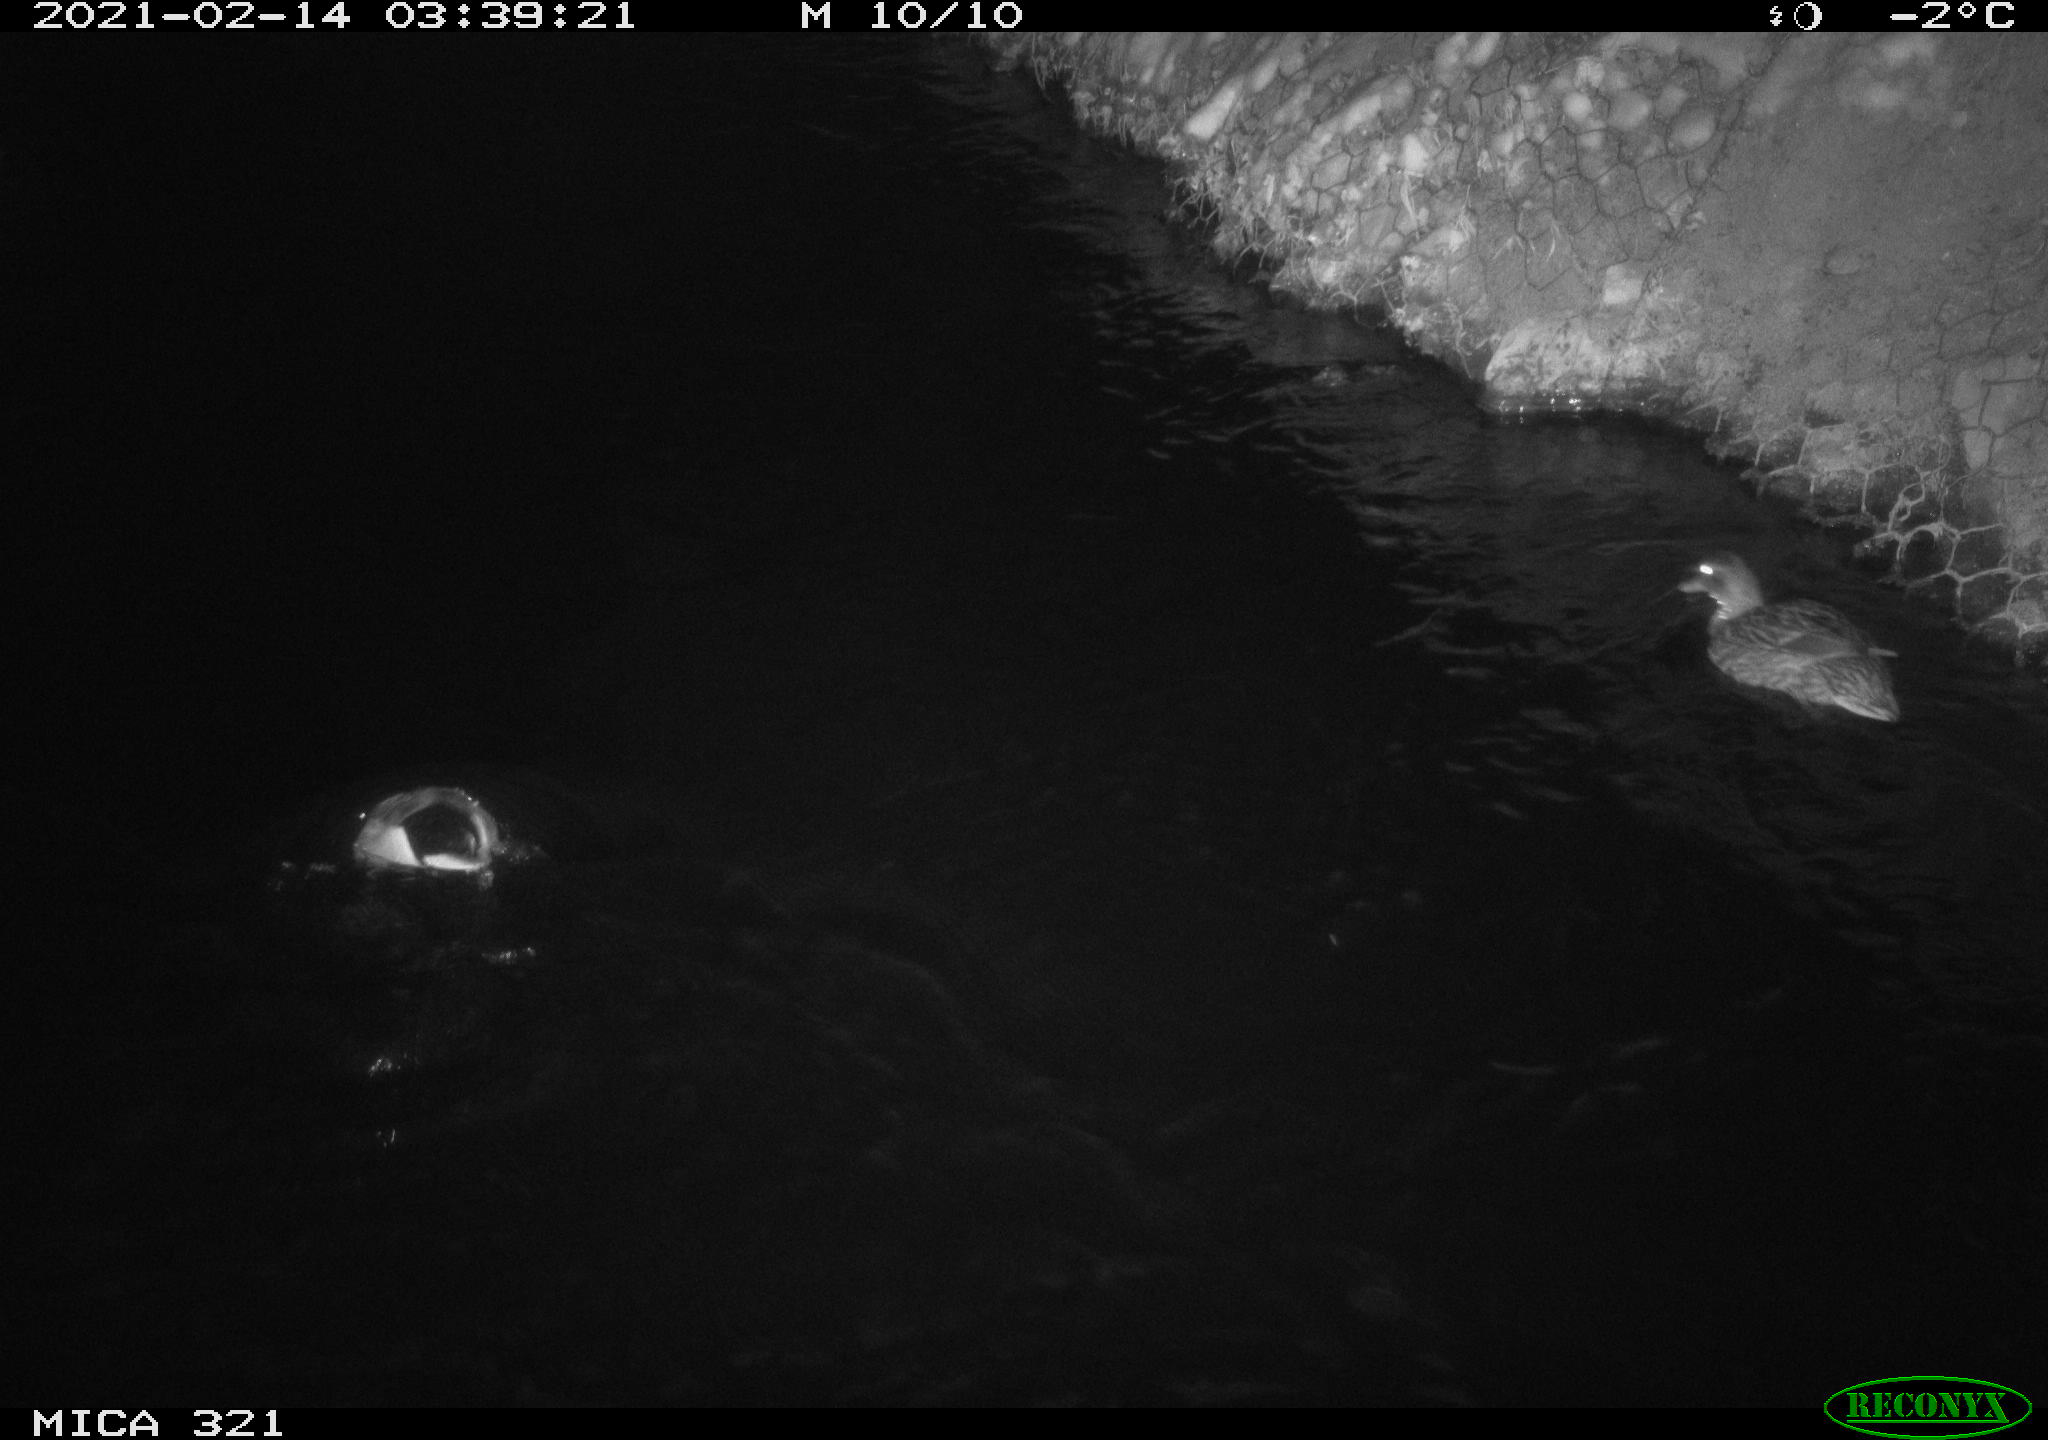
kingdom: Animalia
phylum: Chordata
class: Aves
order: Anseriformes
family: Anatidae
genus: Anas
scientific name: Anas platyrhynchos
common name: Mallard
